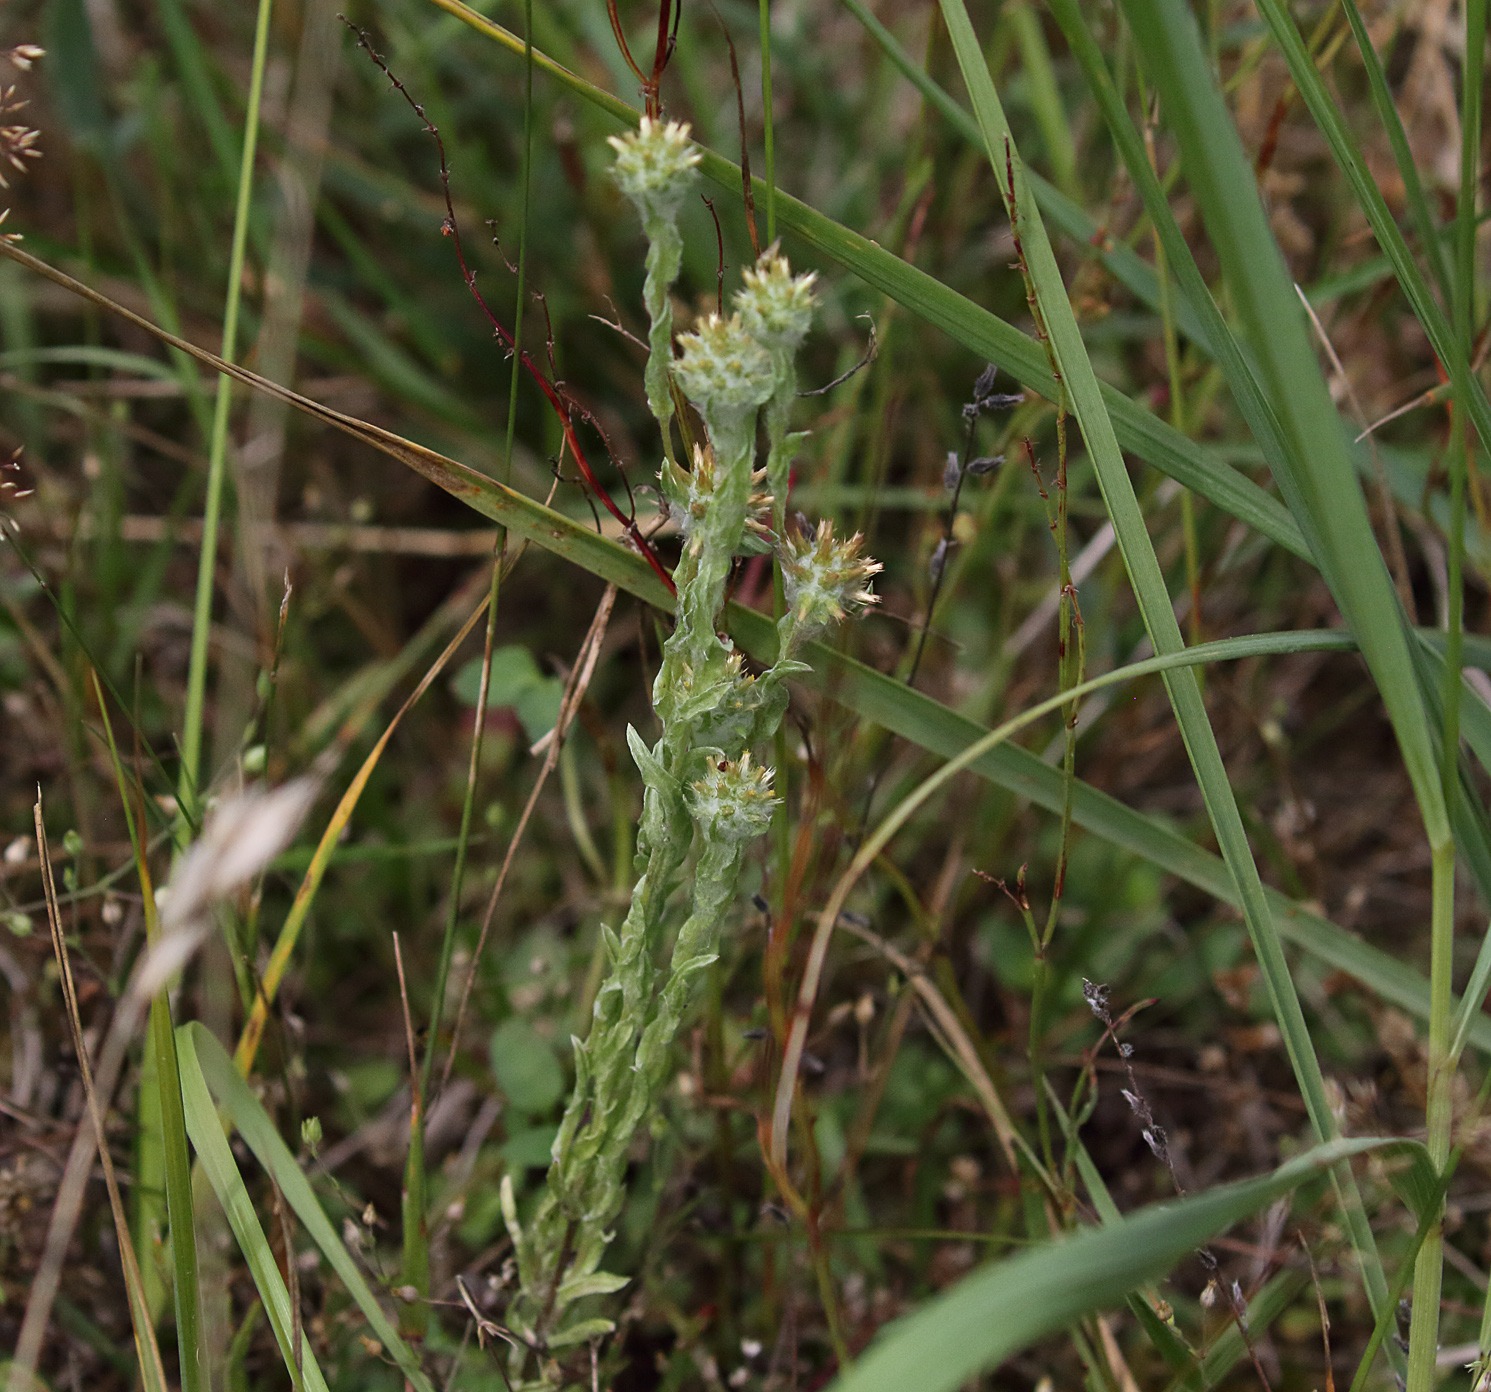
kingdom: Plantae
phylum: Tracheophyta
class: Magnoliopsida
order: Asterales
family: Asteraceae
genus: Filago
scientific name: Filago germanica
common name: Kugle-museurt
